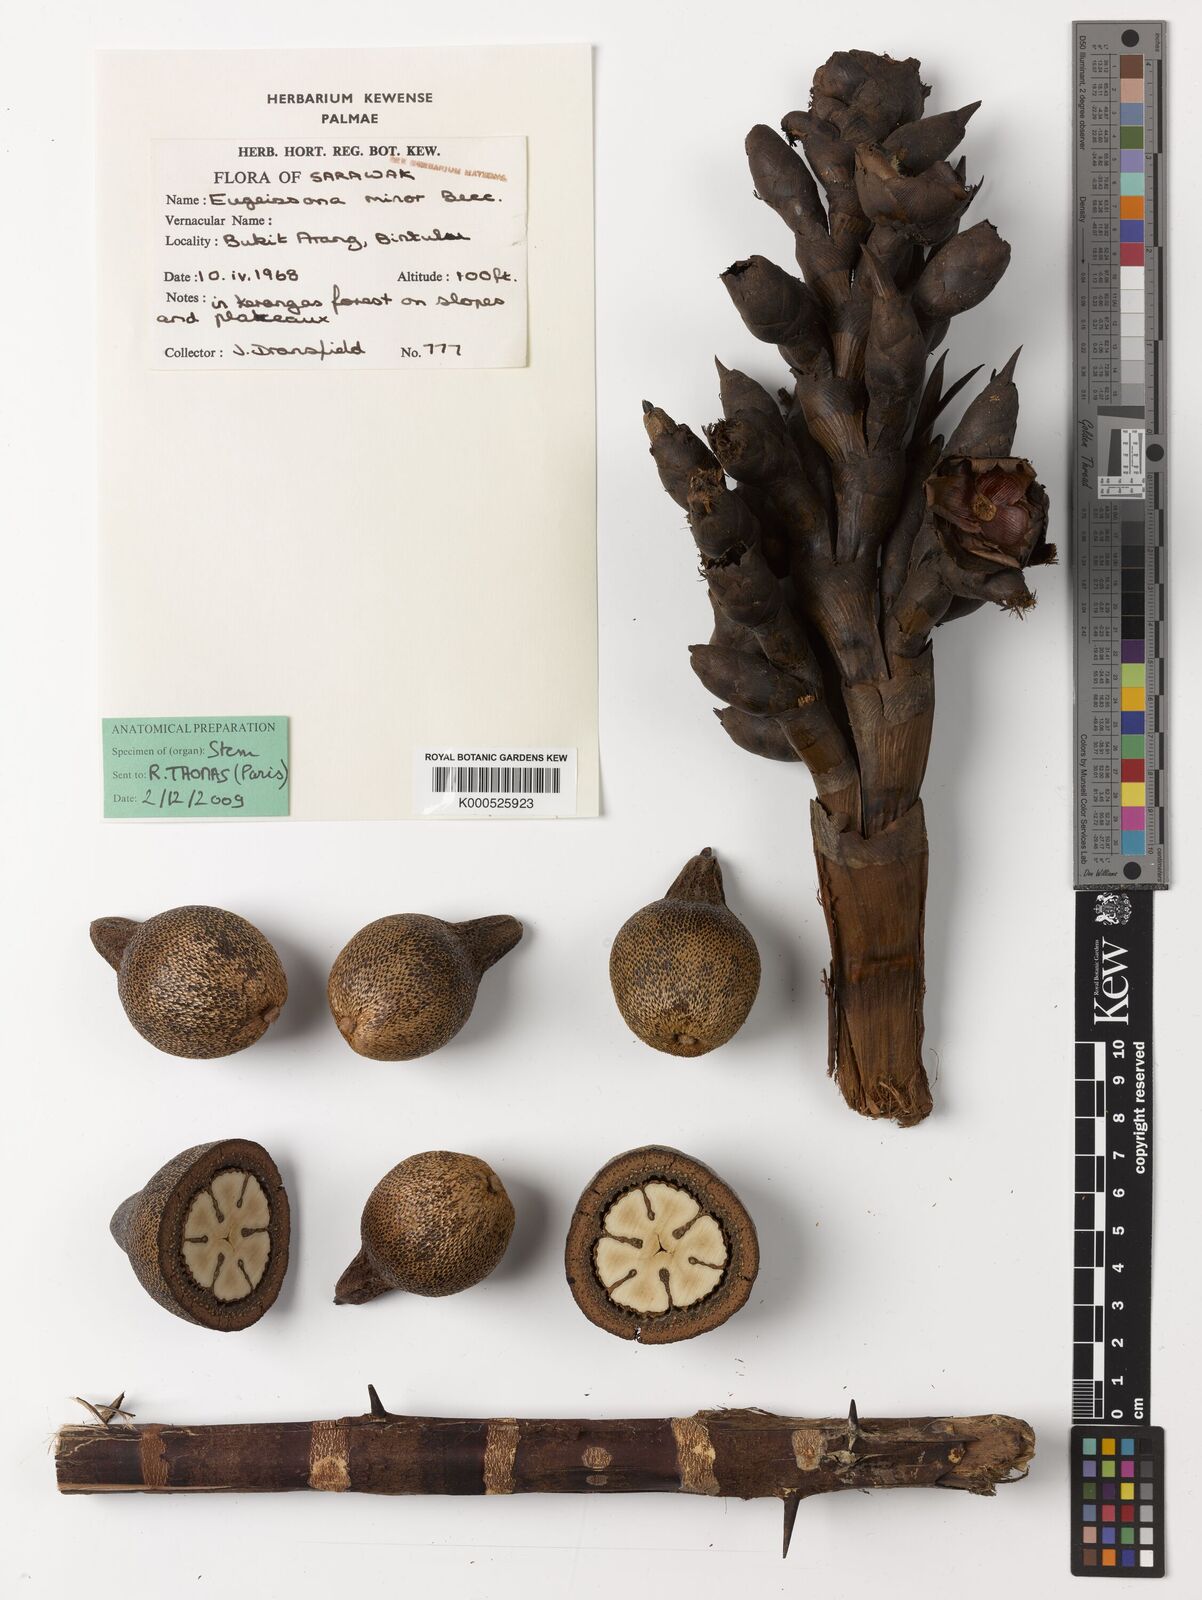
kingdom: Plantae
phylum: Tracheophyta
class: Liliopsida
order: Arecales
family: Arecaceae
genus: Eugeissona
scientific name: Eugeissona minor
